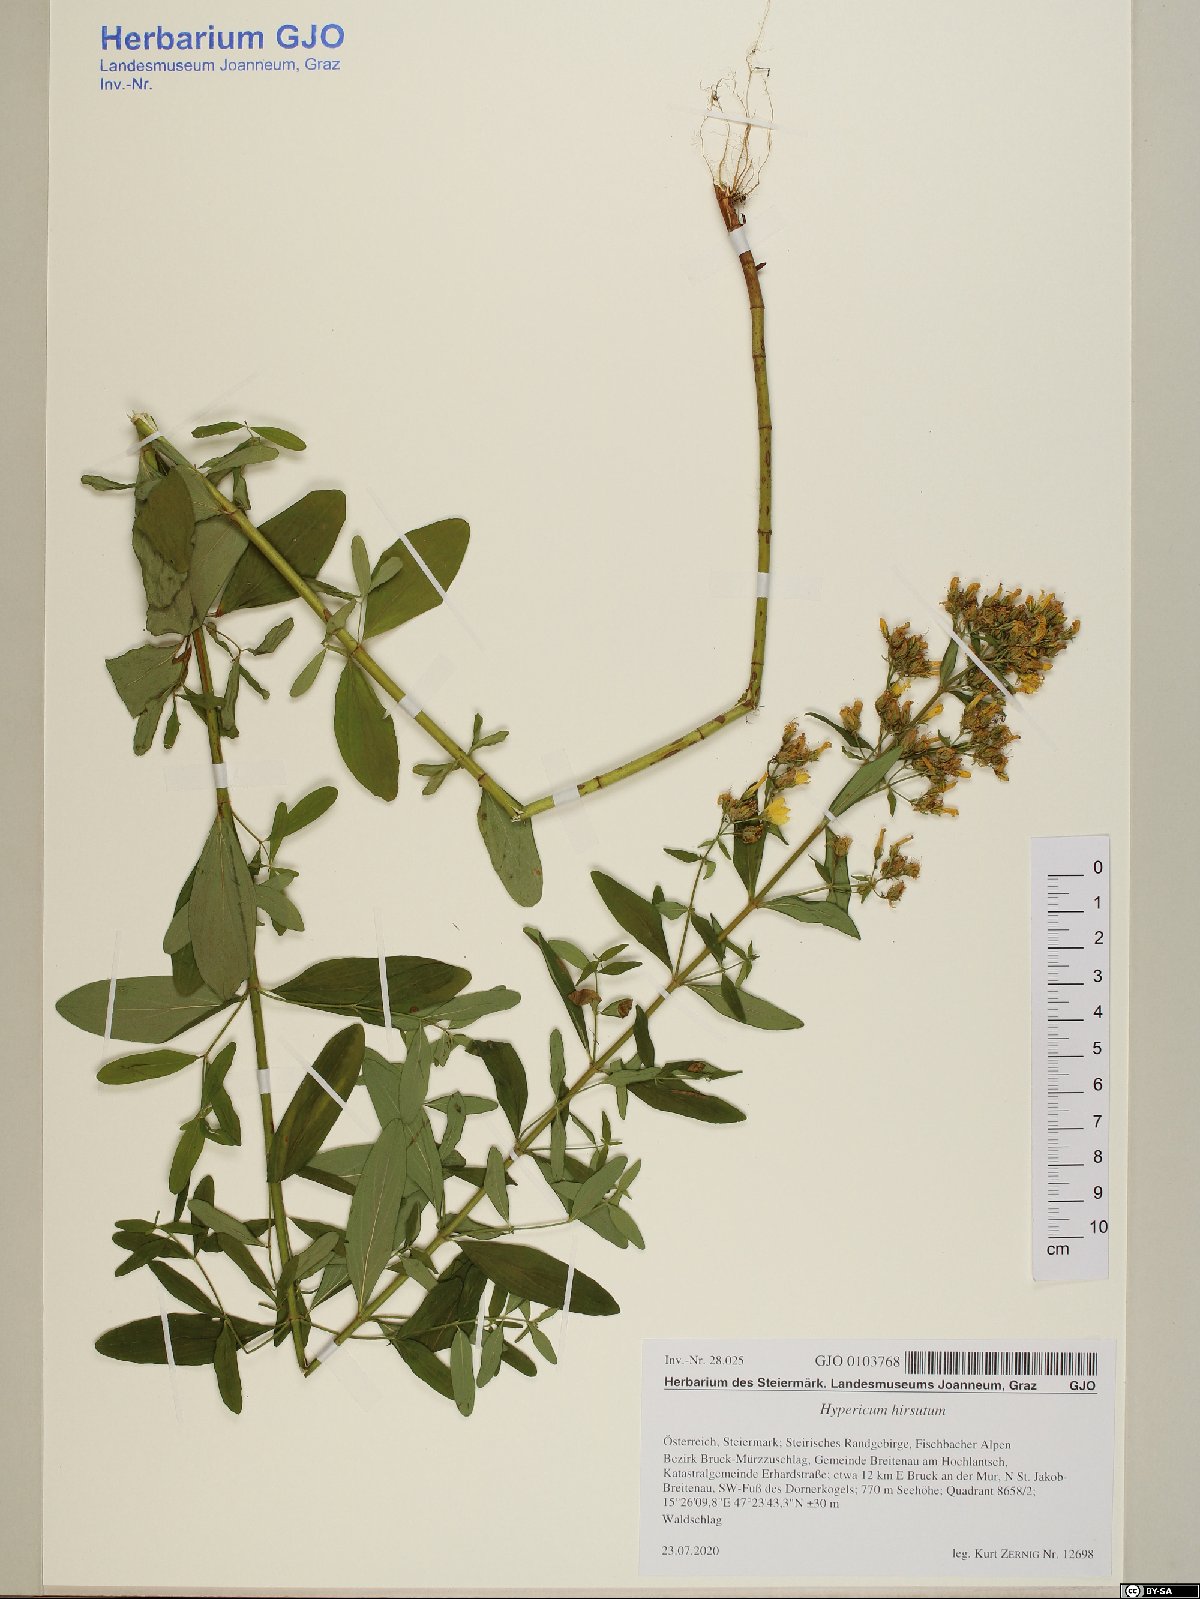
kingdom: Plantae
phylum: Tracheophyta
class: Magnoliopsida
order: Malpighiales
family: Hypericaceae
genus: Hypericum
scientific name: Hypericum hirsutum
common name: Hairy st. john's-wort
